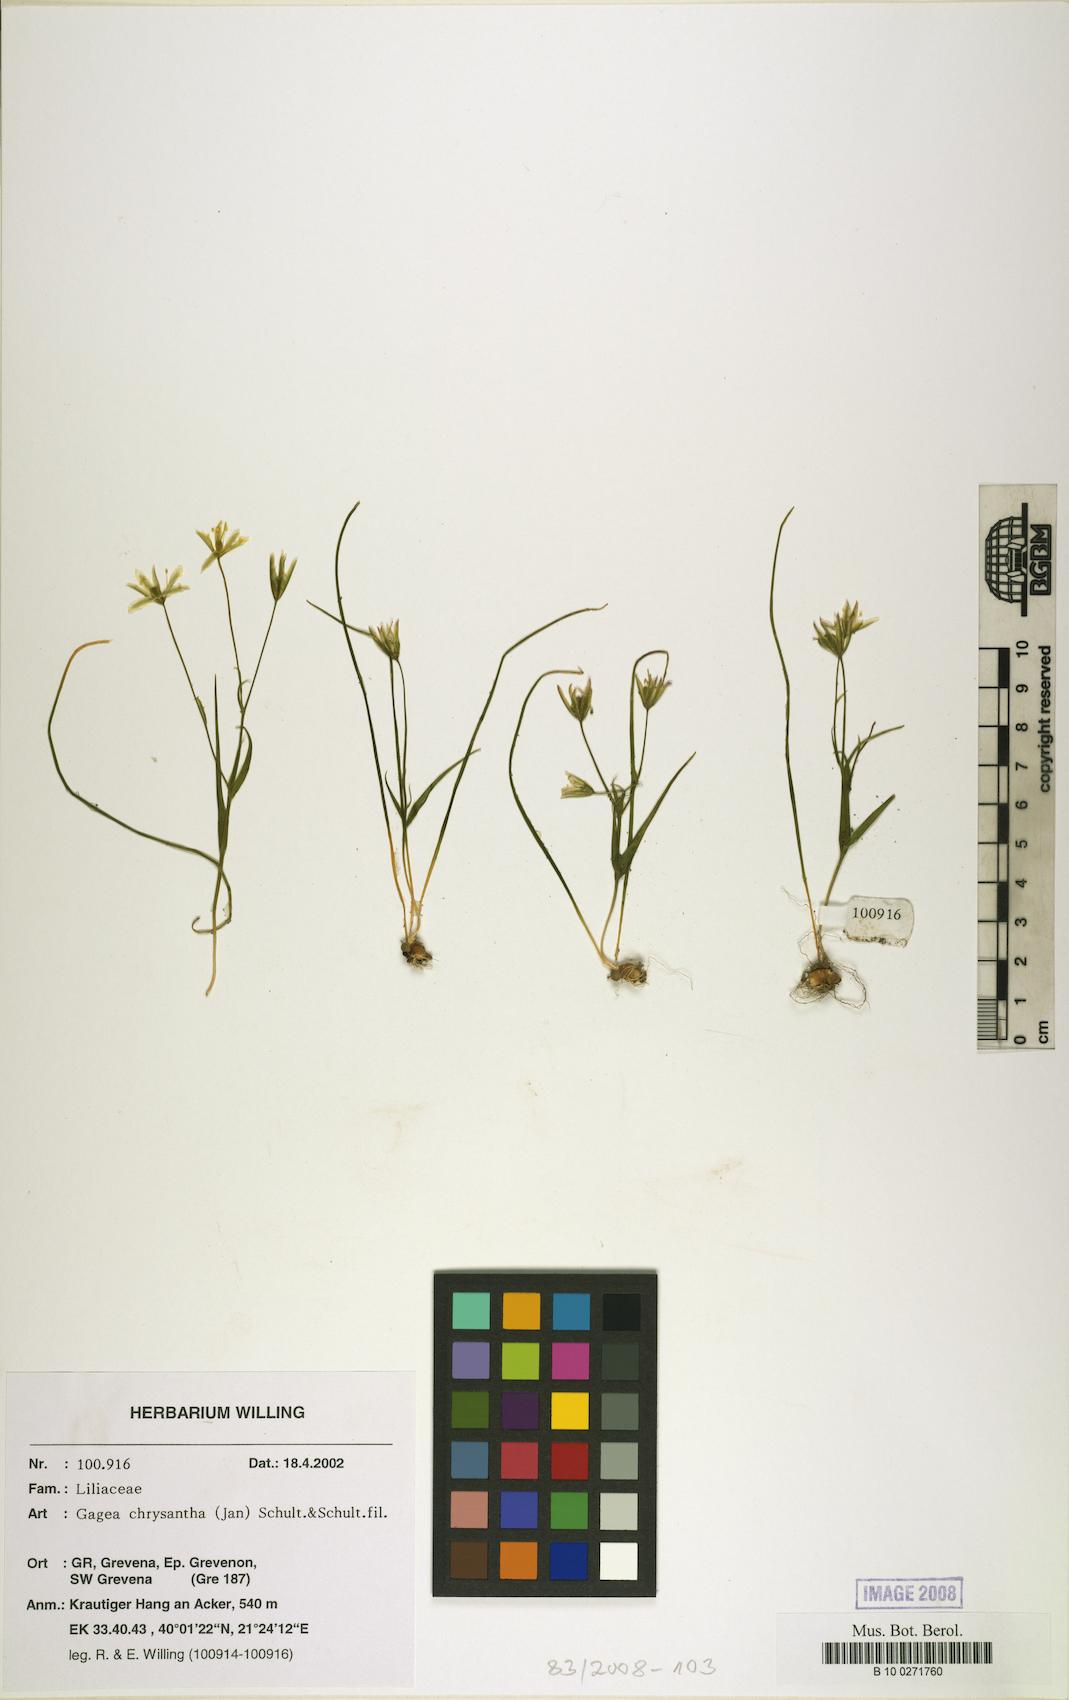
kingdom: Plantae
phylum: Tracheophyta
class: Liliopsida
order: Liliales
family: Liliaceae
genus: Gagea
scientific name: Gagea chrysantha
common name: Golden gagea
